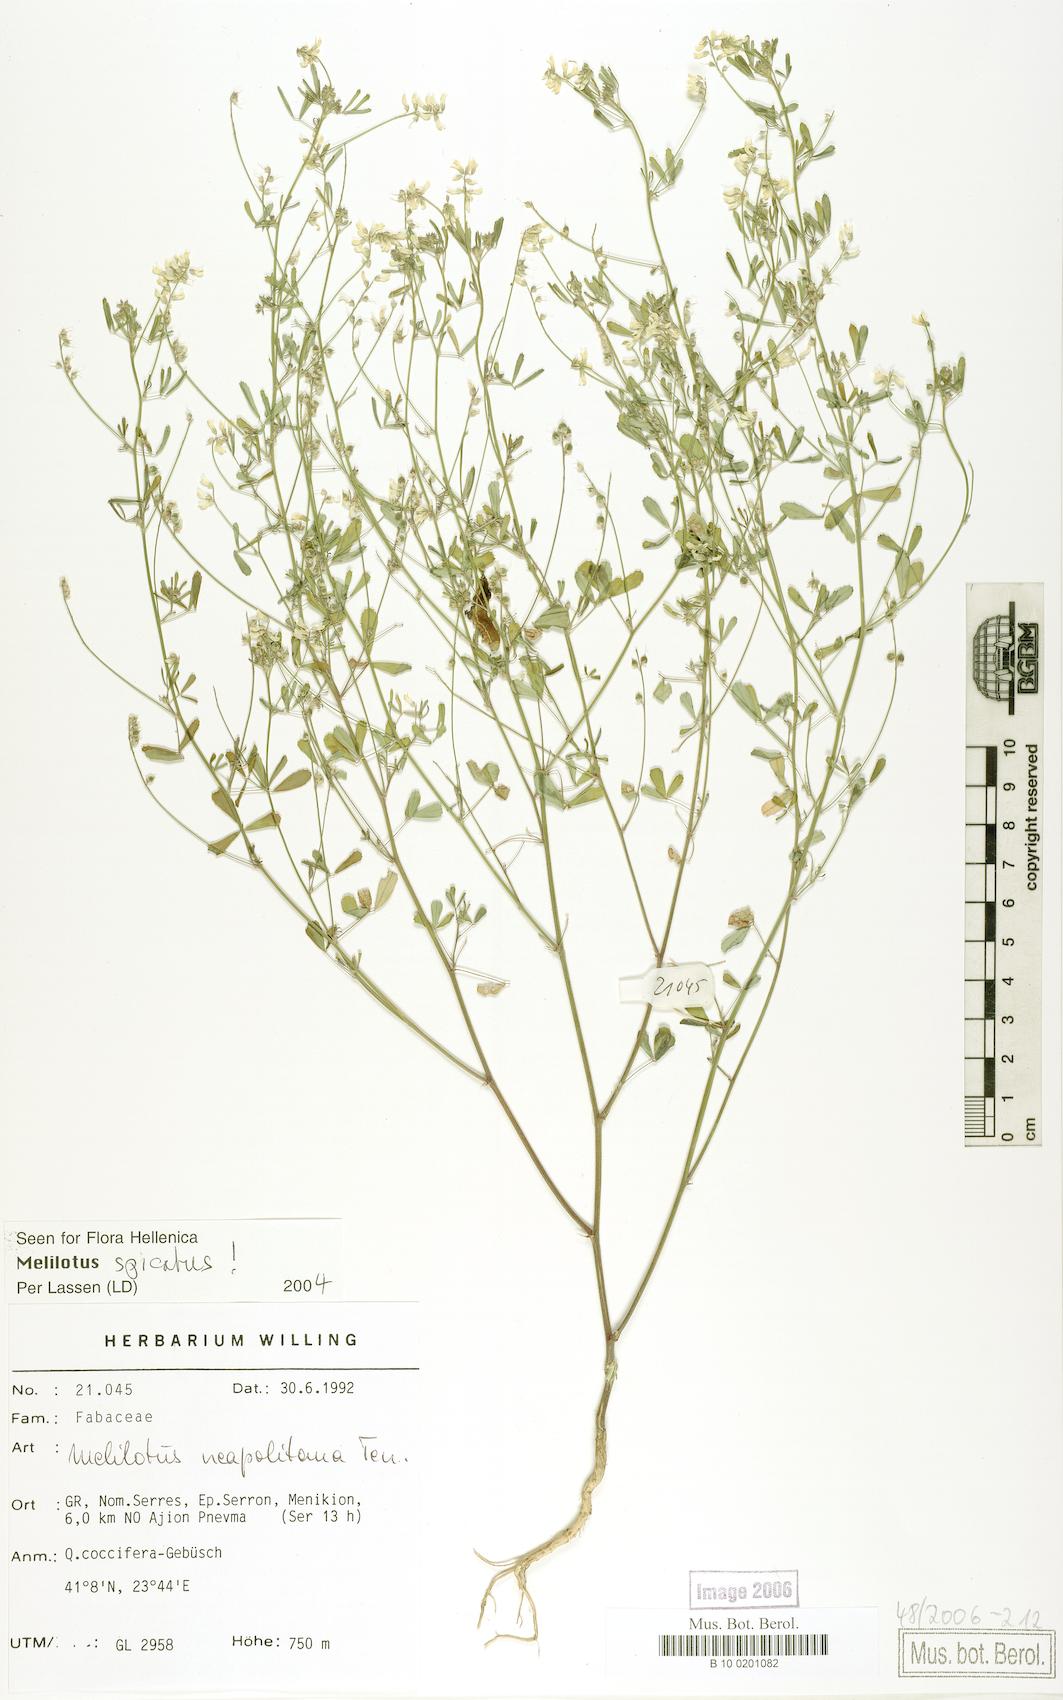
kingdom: Plantae
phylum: Tracheophyta
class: Magnoliopsida
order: Fabales
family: Fabaceae
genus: Melilotus
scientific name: Melilotus neapolitanus
